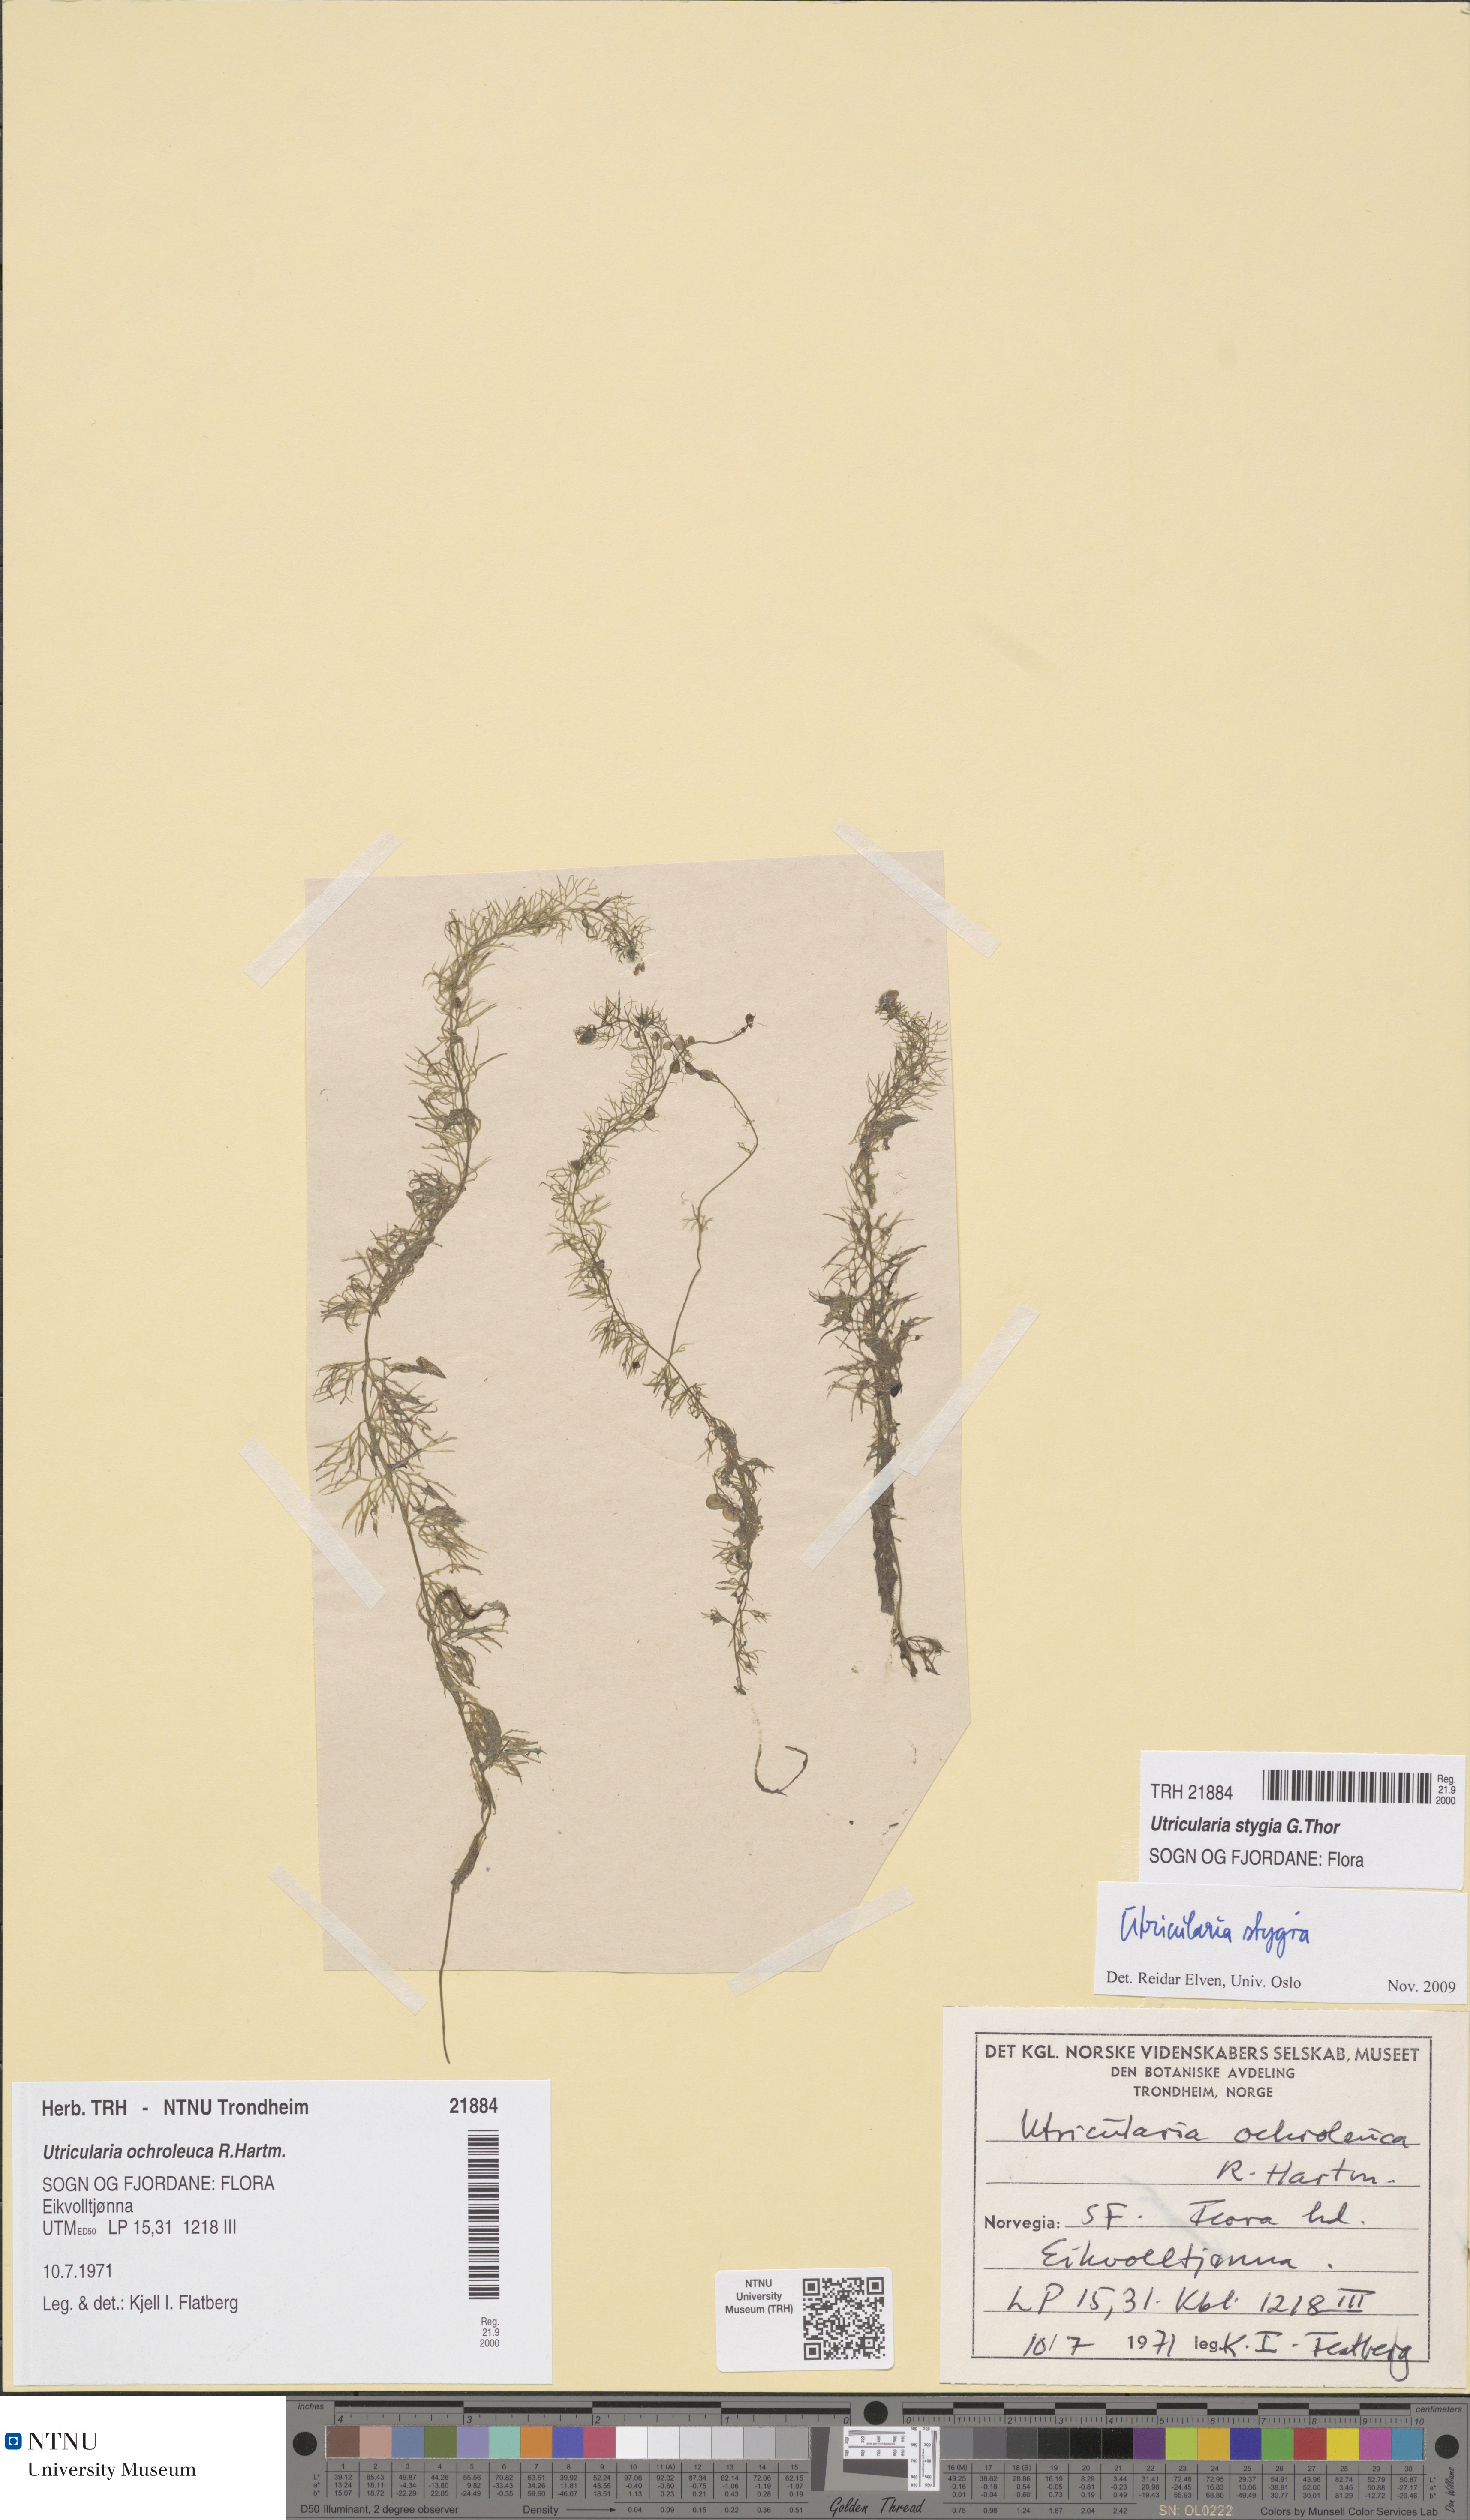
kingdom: Plantae
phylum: Tracheophyta
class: Magnoliopsida
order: Lamiales
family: Lentibulariaceae
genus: Utricularia
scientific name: Utricularia ochroleuca
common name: Pale bladderwort
